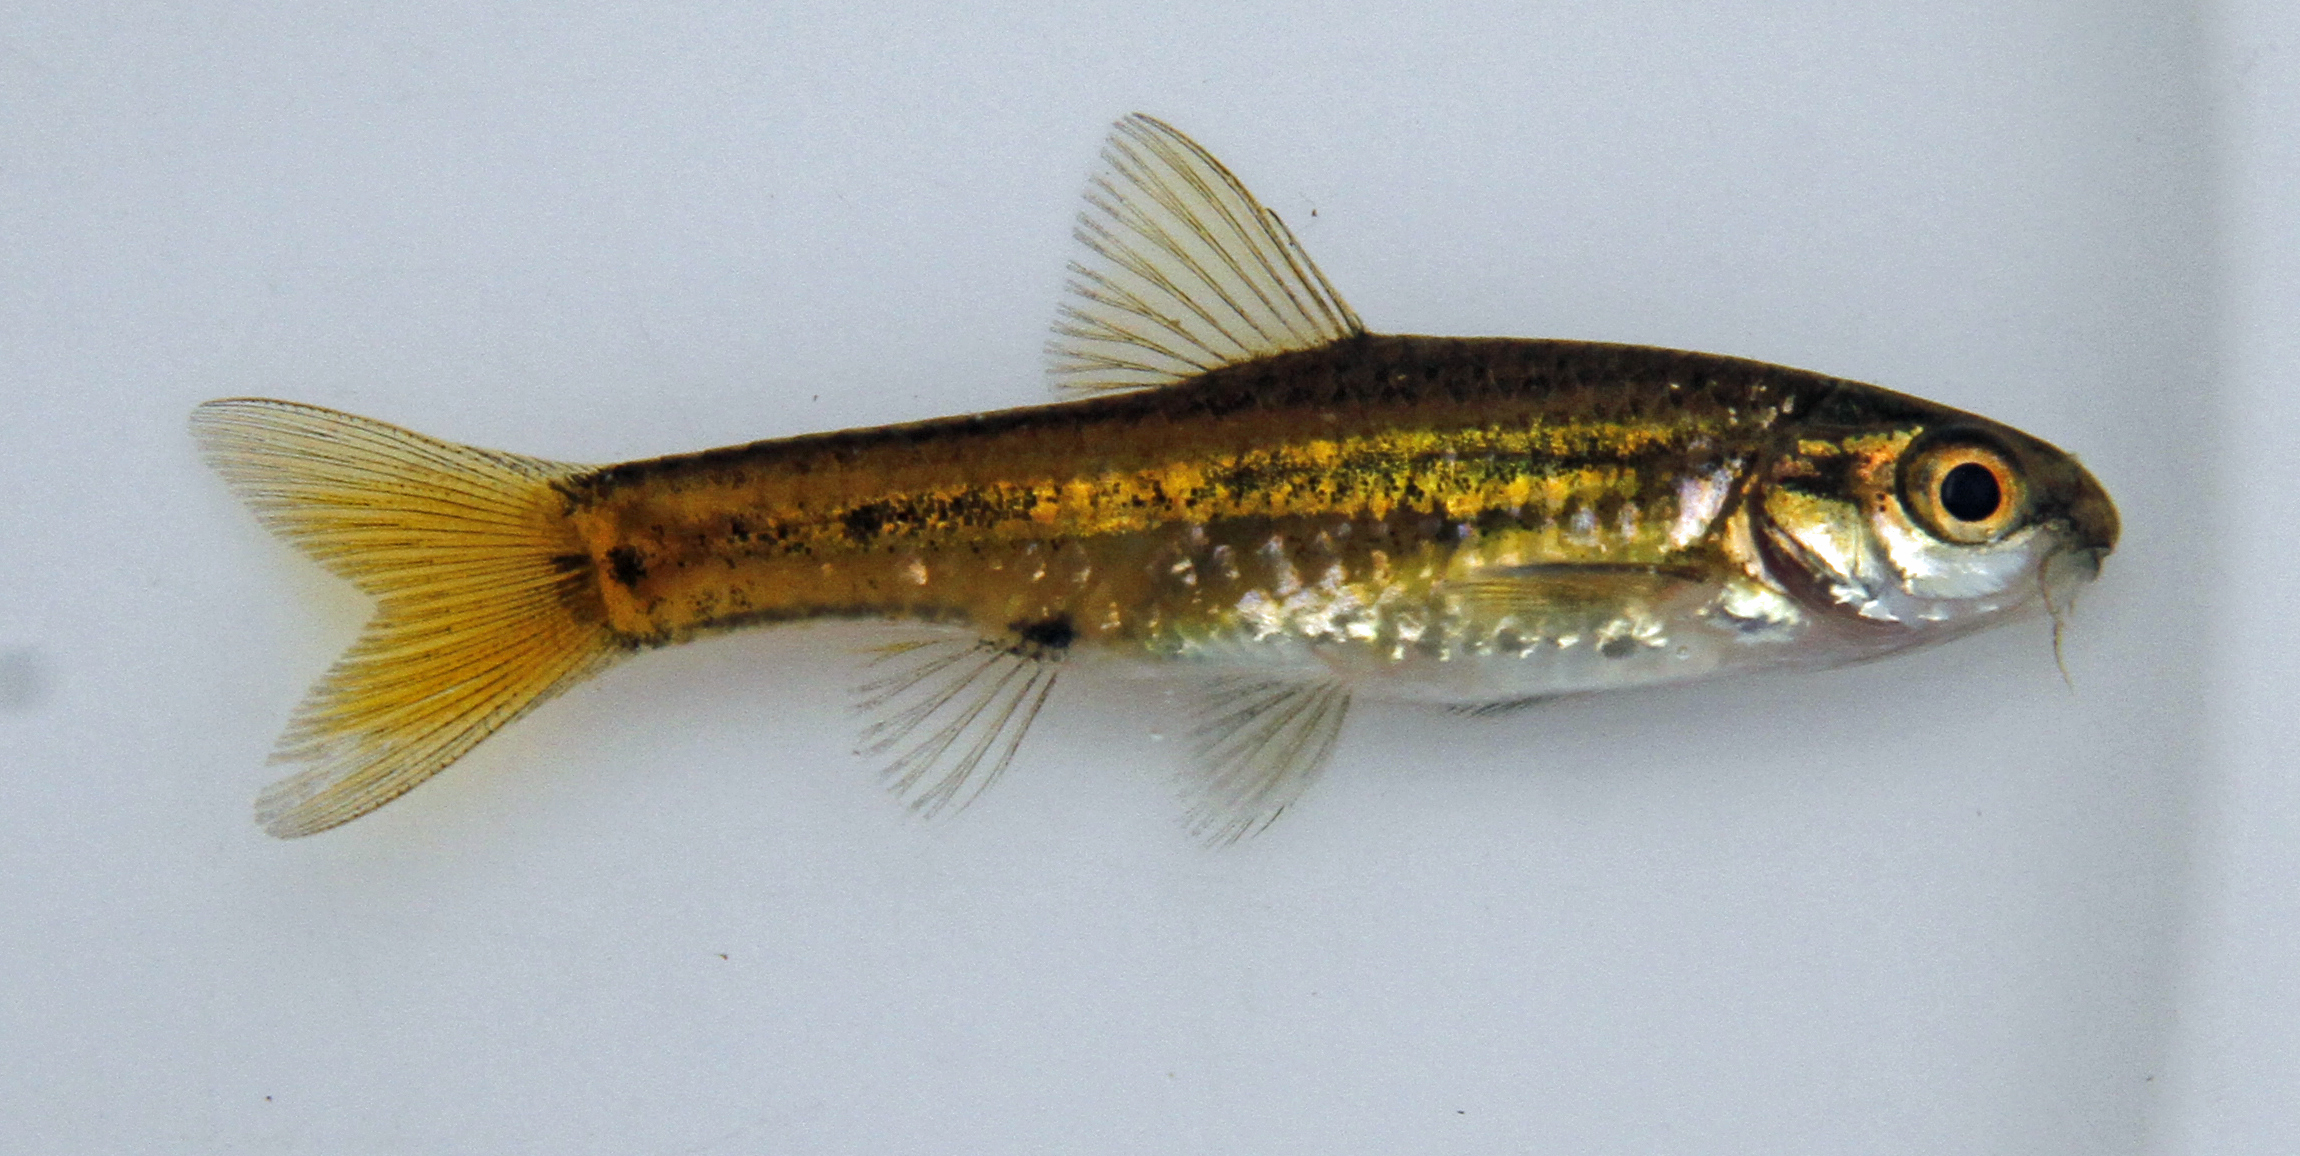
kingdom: Animalia
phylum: Chordata
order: Cypriniformes
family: Cyprinidae
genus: Enteromius
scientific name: Enteromius neefi
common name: Sidespot barb
